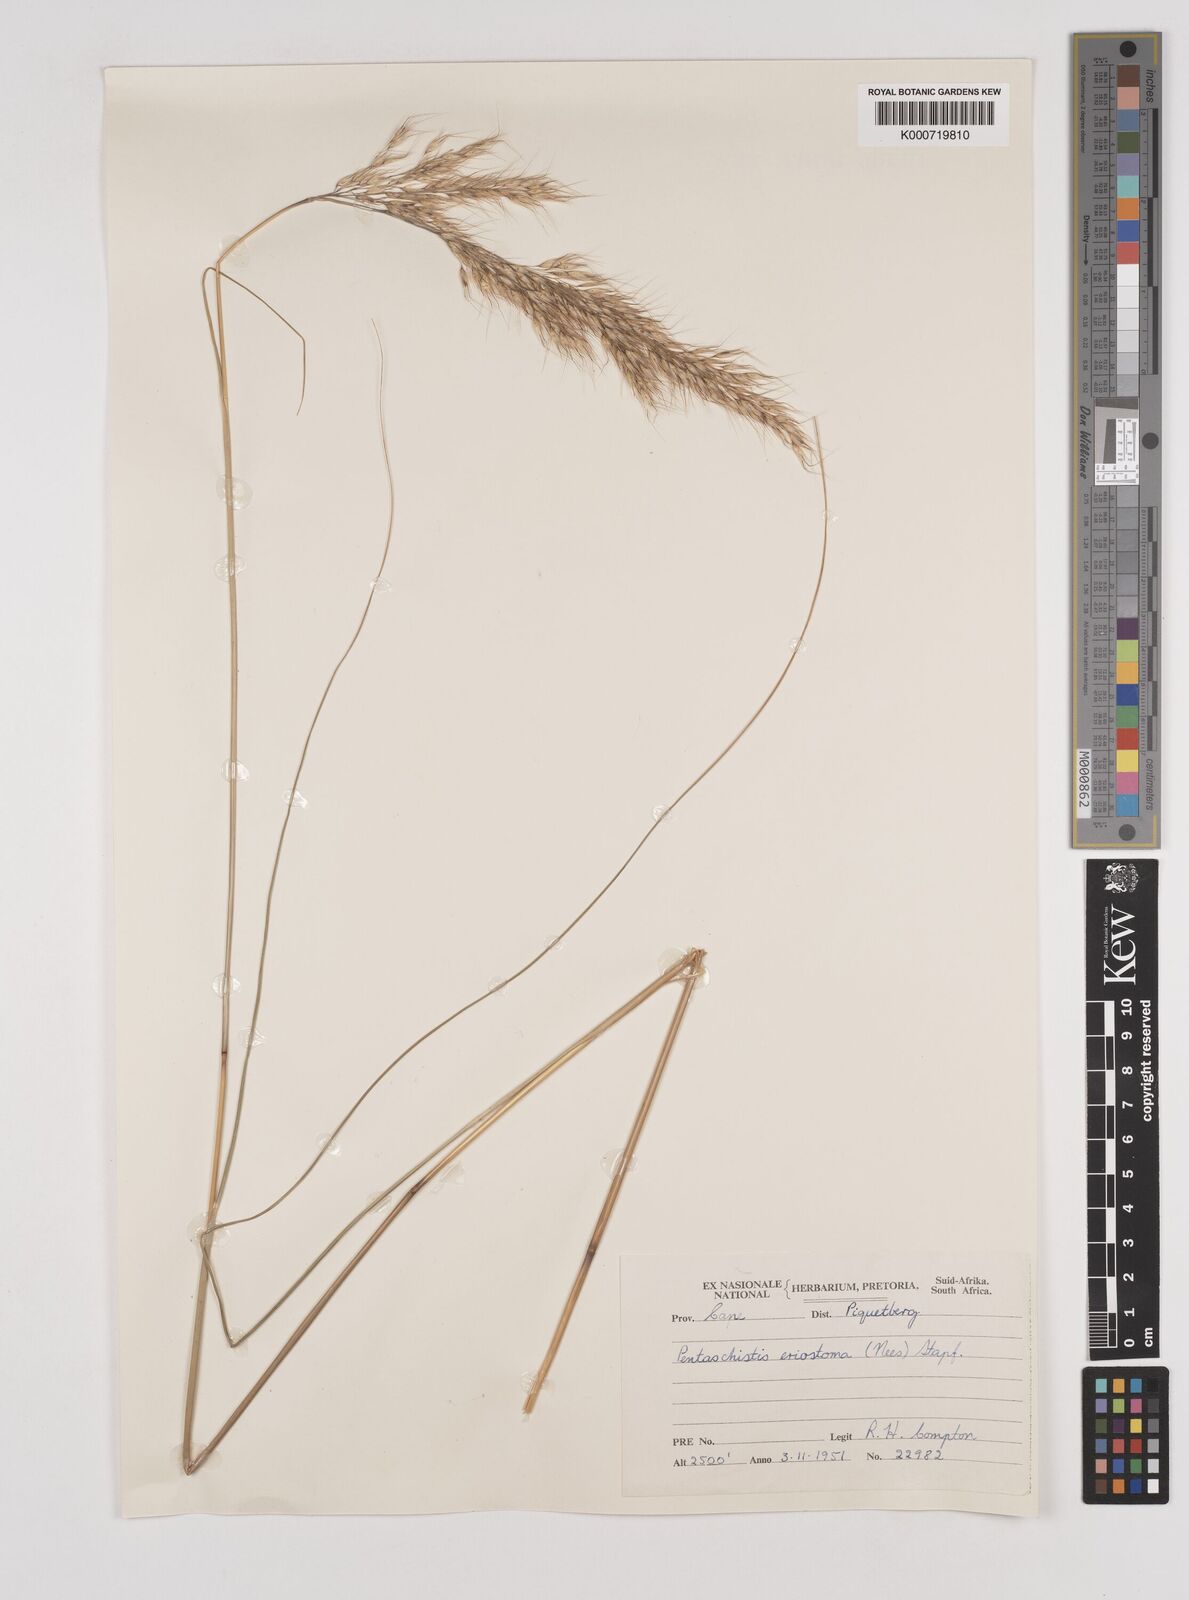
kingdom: Plantae
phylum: Tracheophyta
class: Liliopsida
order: Poales
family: Poaceae
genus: Pentameris
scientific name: Pentameris eriostoma
